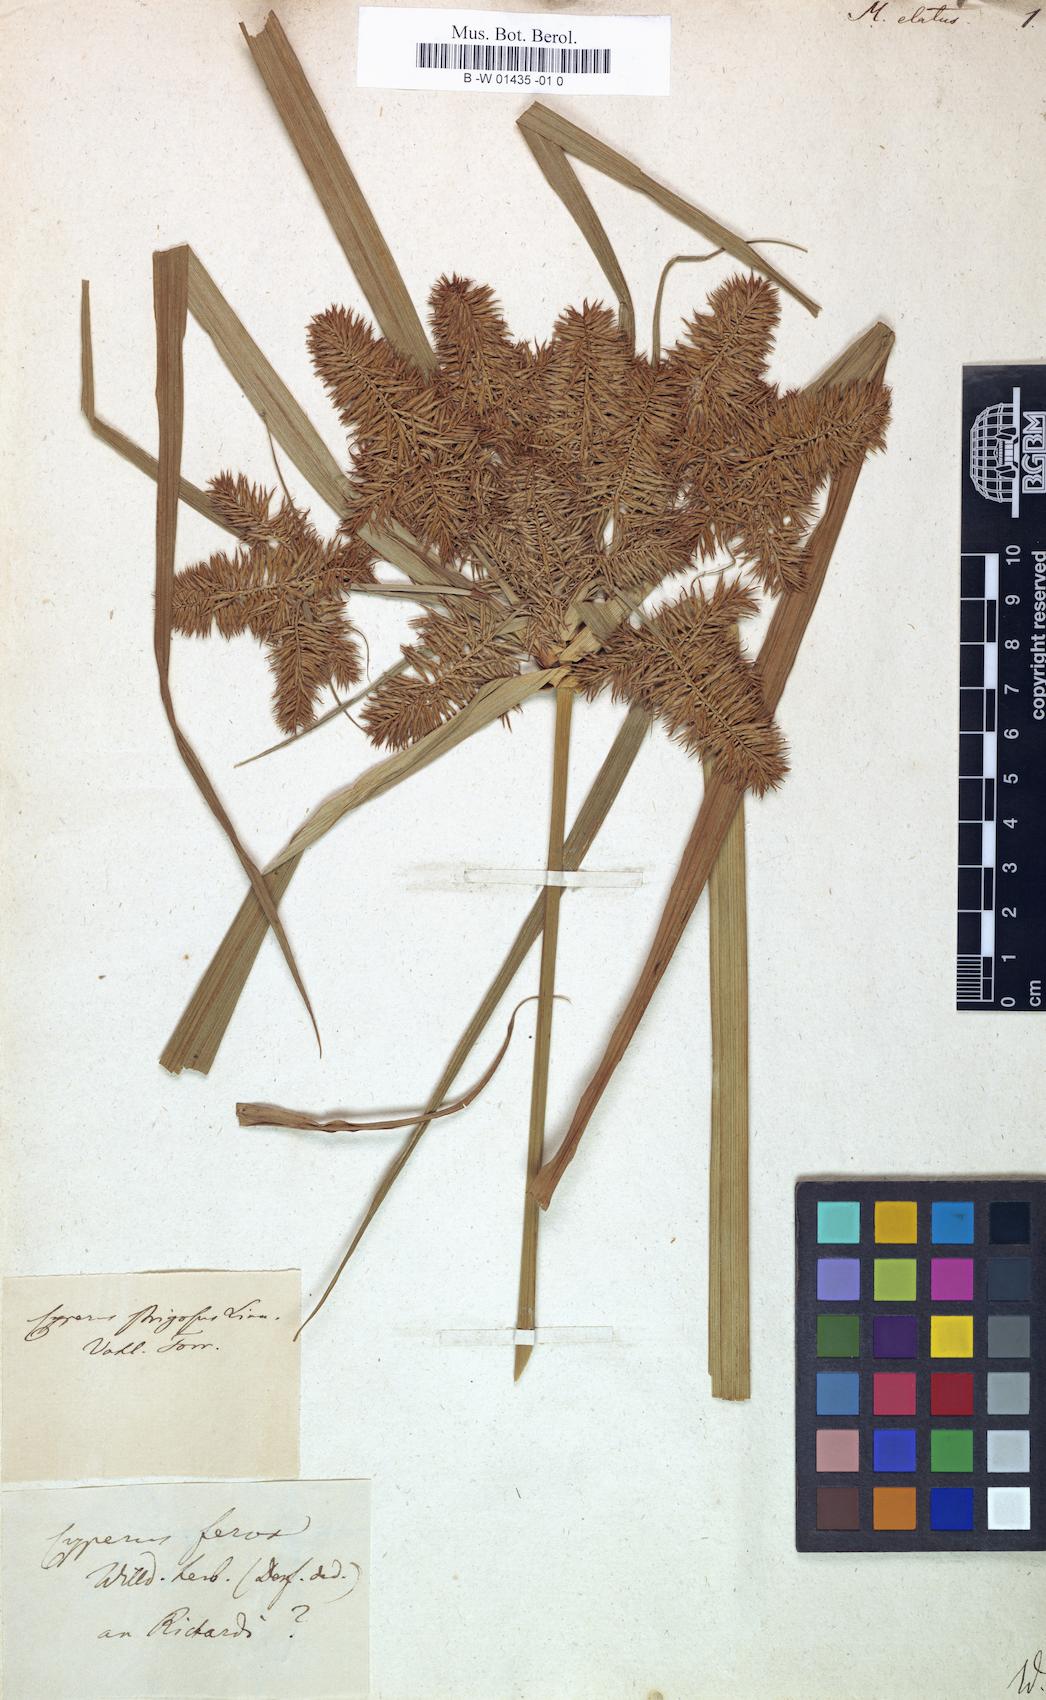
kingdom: Plantae
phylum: Tracheophyta
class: Liliopsida
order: Poales
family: Cyperaceae
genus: Cyperus
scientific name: Cyperus coriifolius
